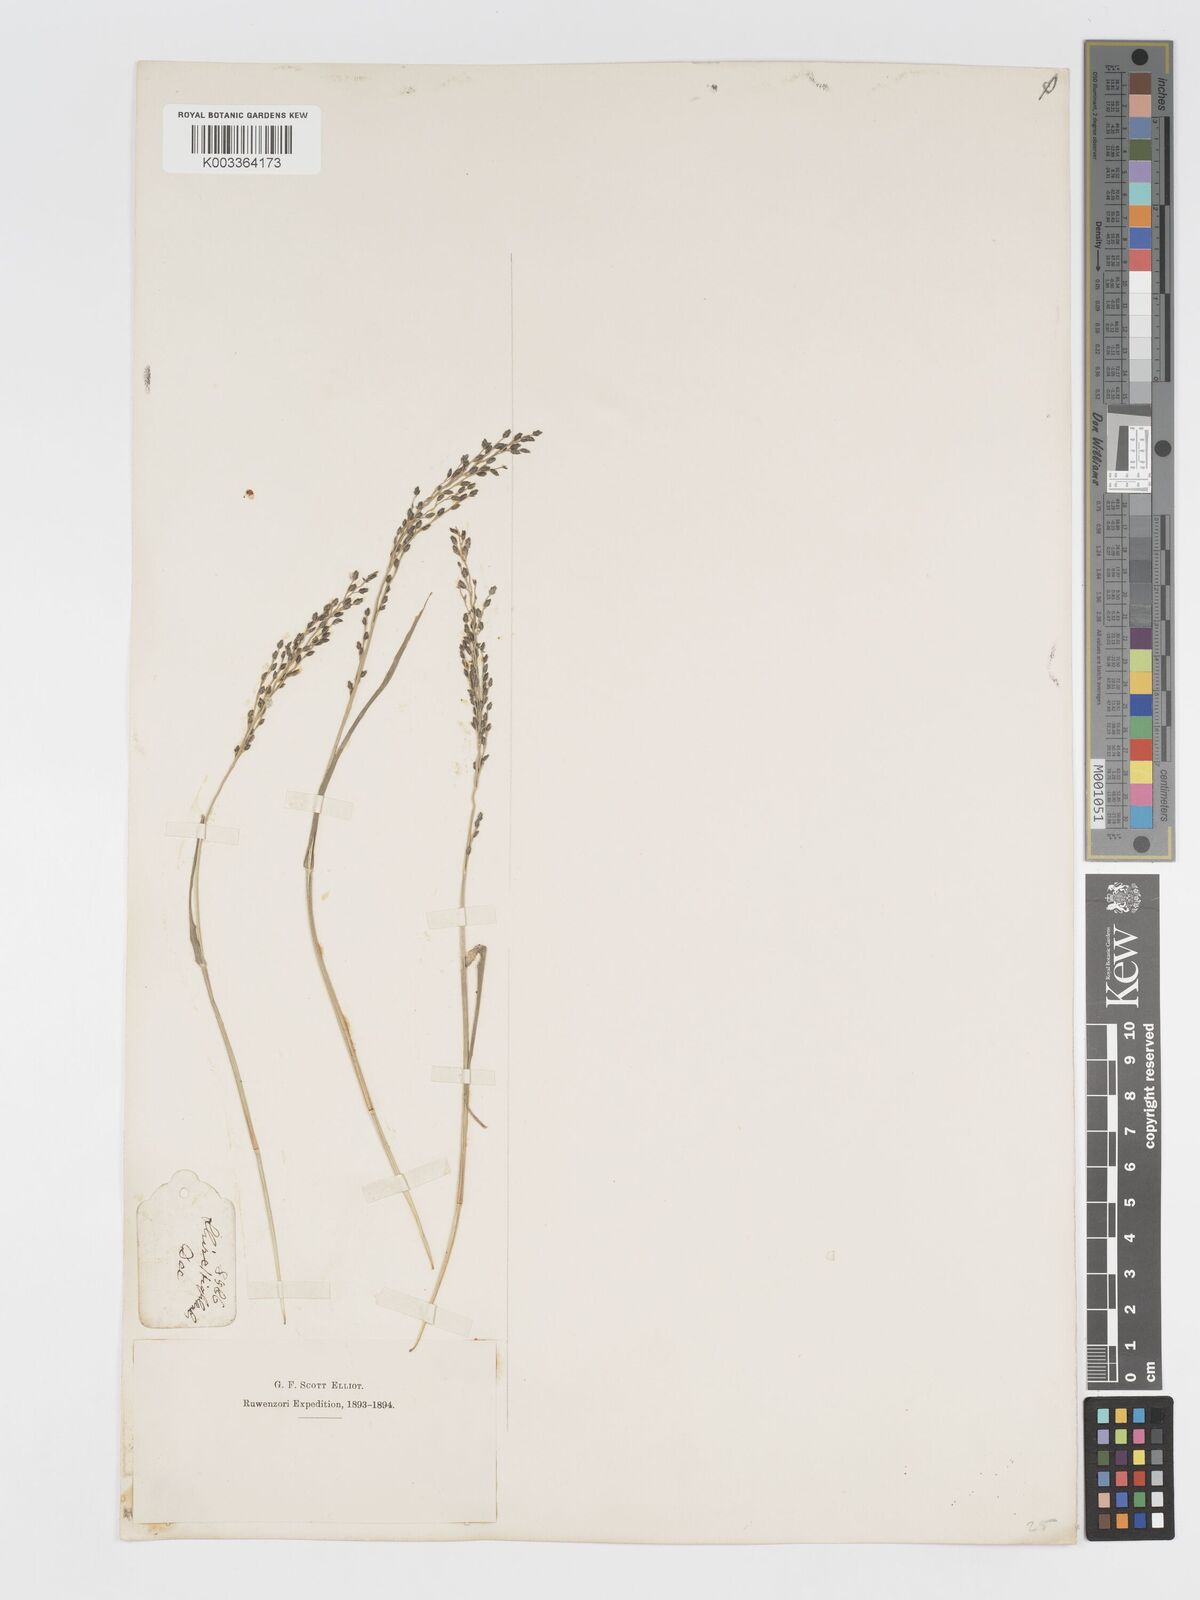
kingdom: Plantae
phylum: Tracheophyta
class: Liliopsida
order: Poales
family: Poaceae
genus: Eragrostis
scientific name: Eragrostis racemosa
